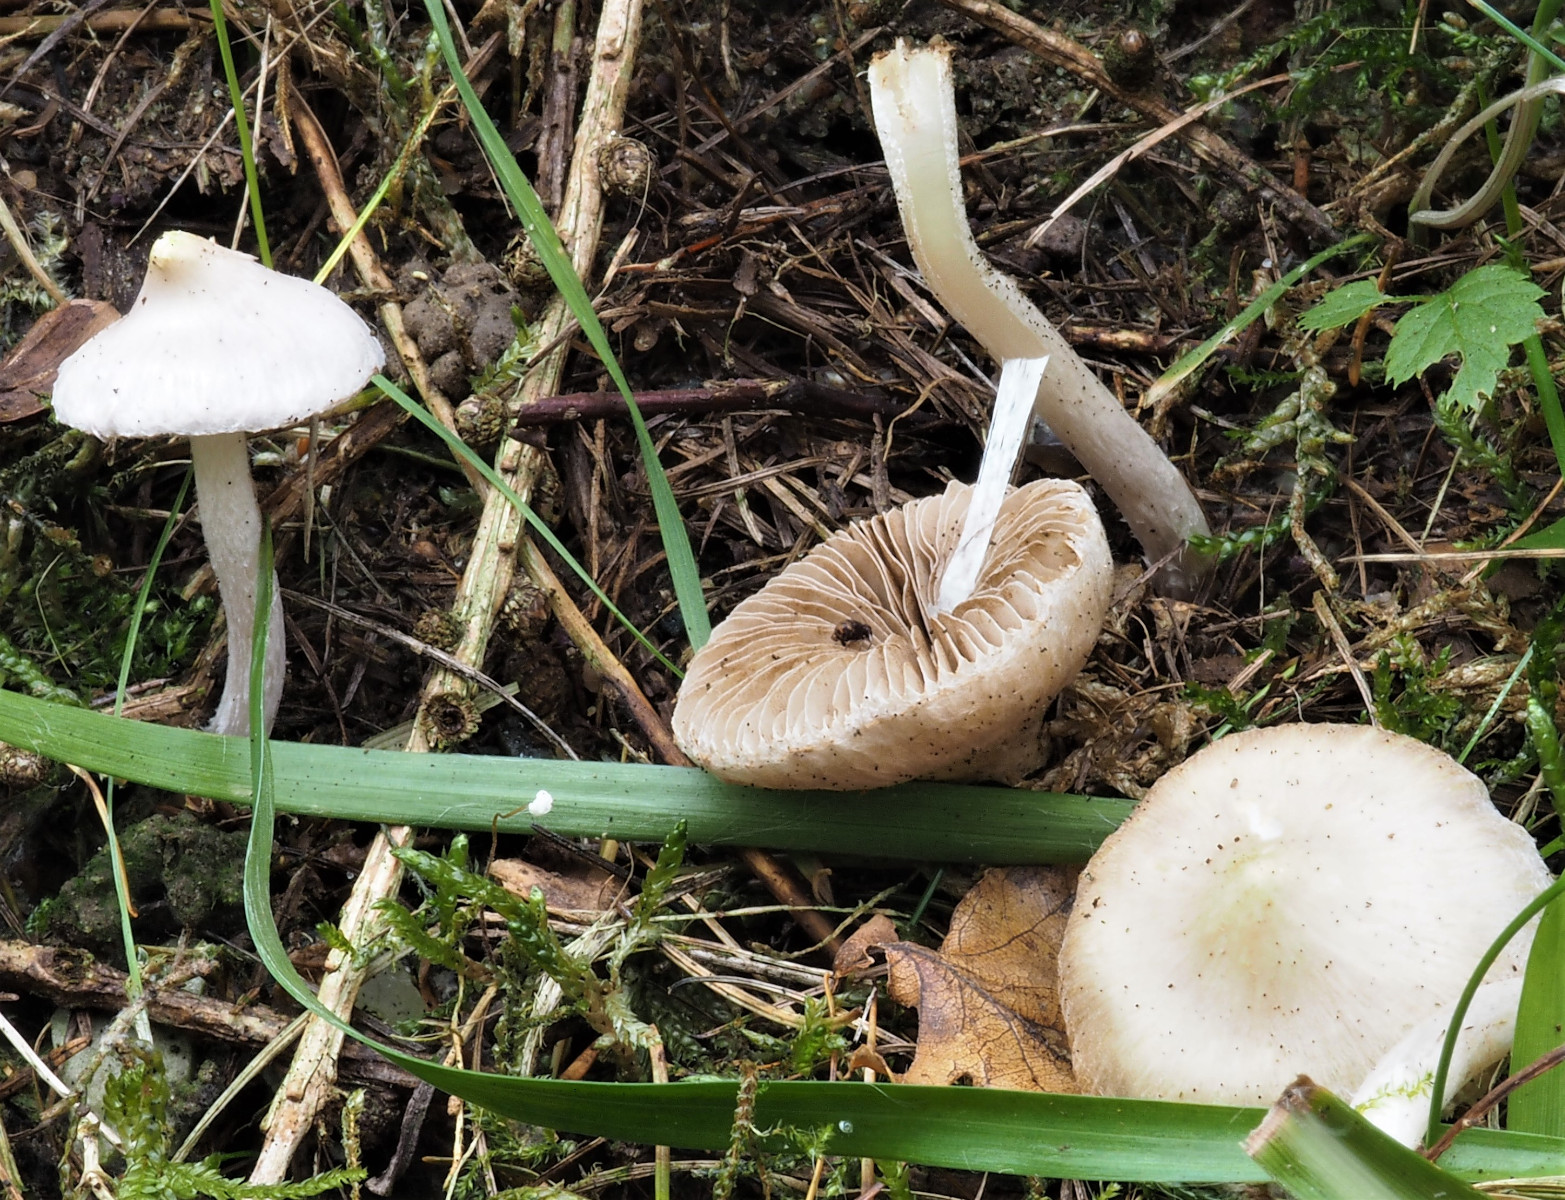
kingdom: Fungi
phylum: Basidiomycota
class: Agaricomycetes
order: Agaricales
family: Inocybaceae
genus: Inocybe
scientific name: Inocybe
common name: almindelig trævlhat
